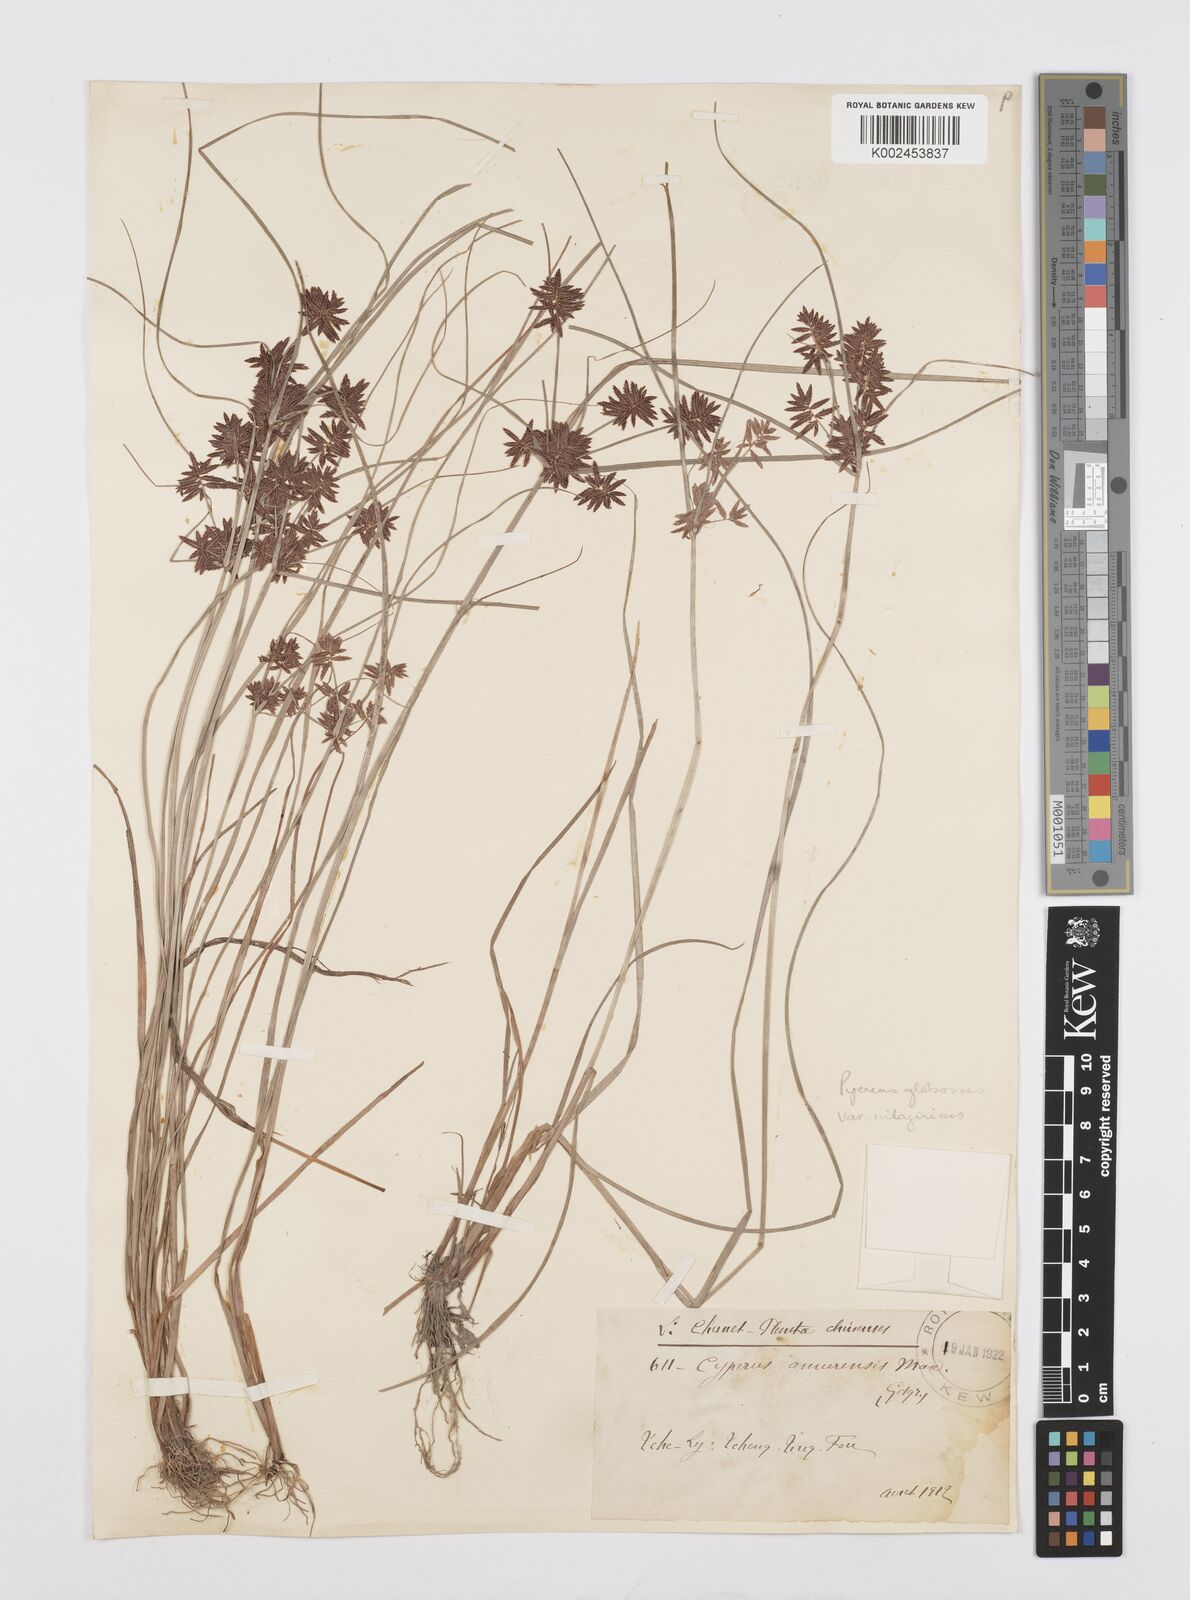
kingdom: Plantae
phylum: Tracheophyta
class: Liliopsida
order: Poales
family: Cyperaceae
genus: Cyperus
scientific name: Cyperus flavidus
